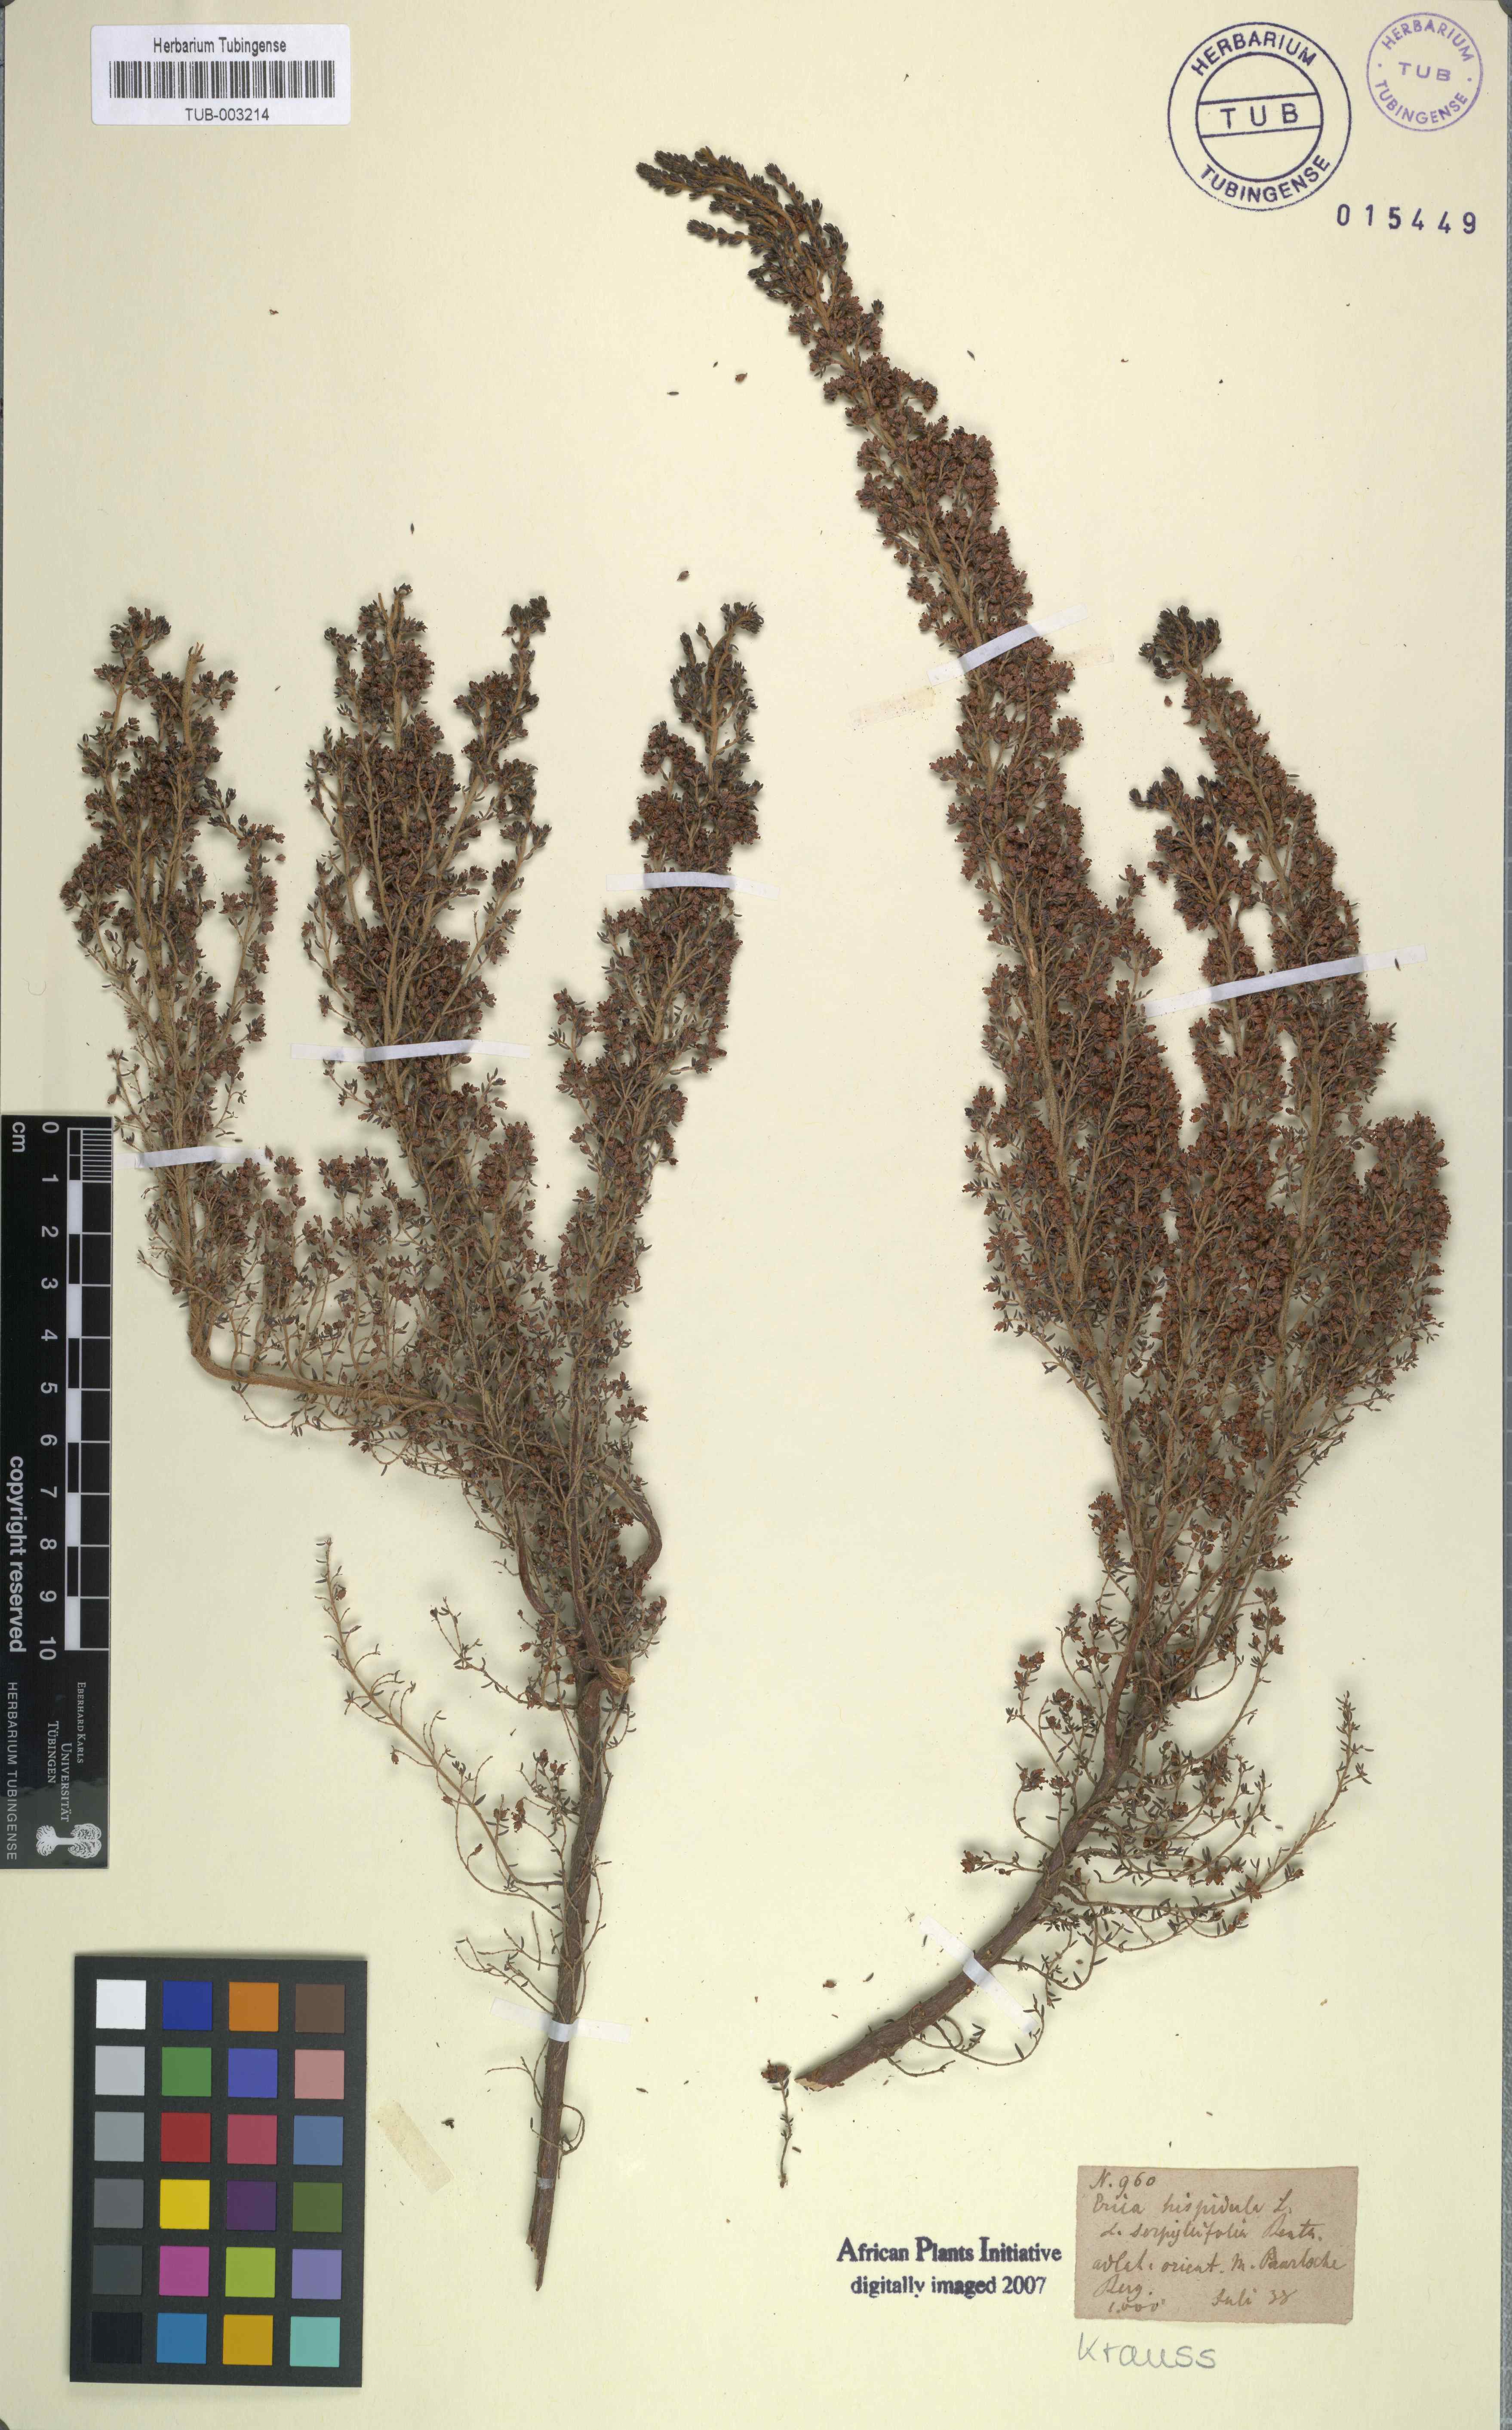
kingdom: Plantae
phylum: Tracheophyta
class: Magnoliopsida
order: Ericales
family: Ericaceae
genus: Erica
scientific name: Erica hispidula
